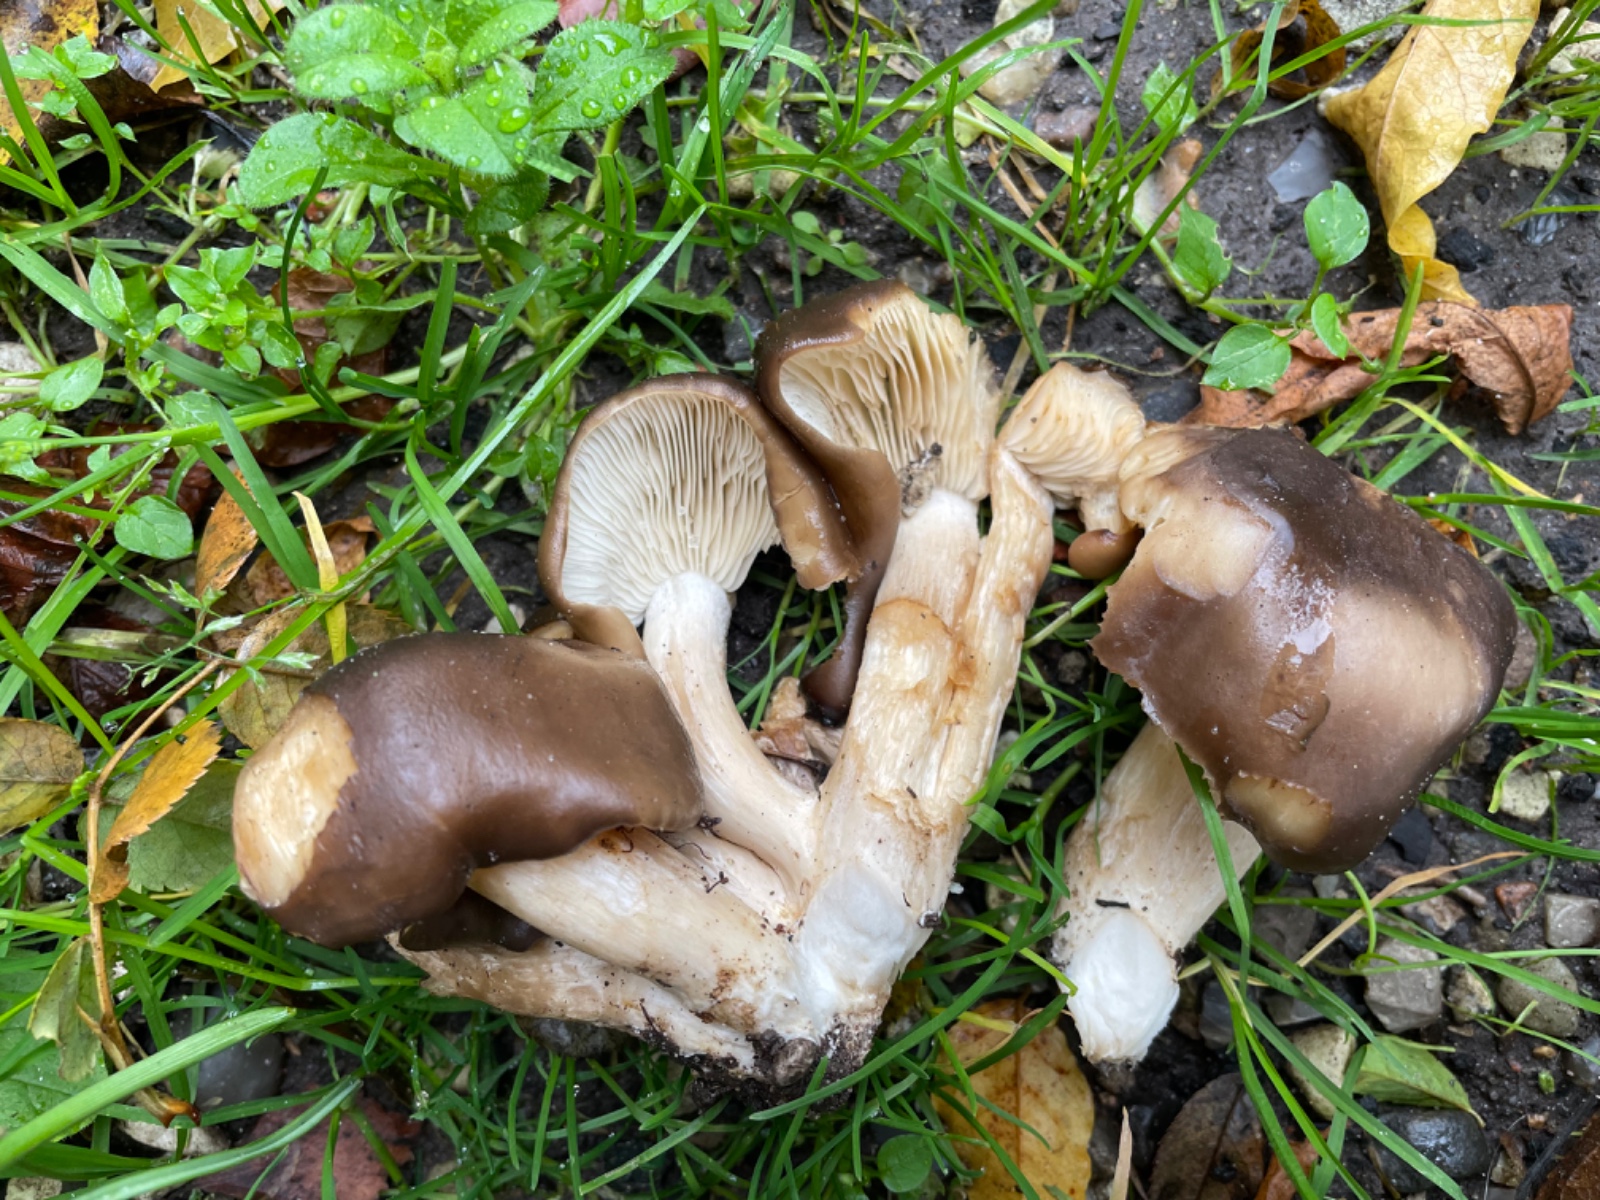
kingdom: Fungi
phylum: Basidiomycota
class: Agaricomycetes
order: Agaricales
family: Lyophyllaceae
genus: Lyophyllum
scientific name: Lyophyllum decastes
